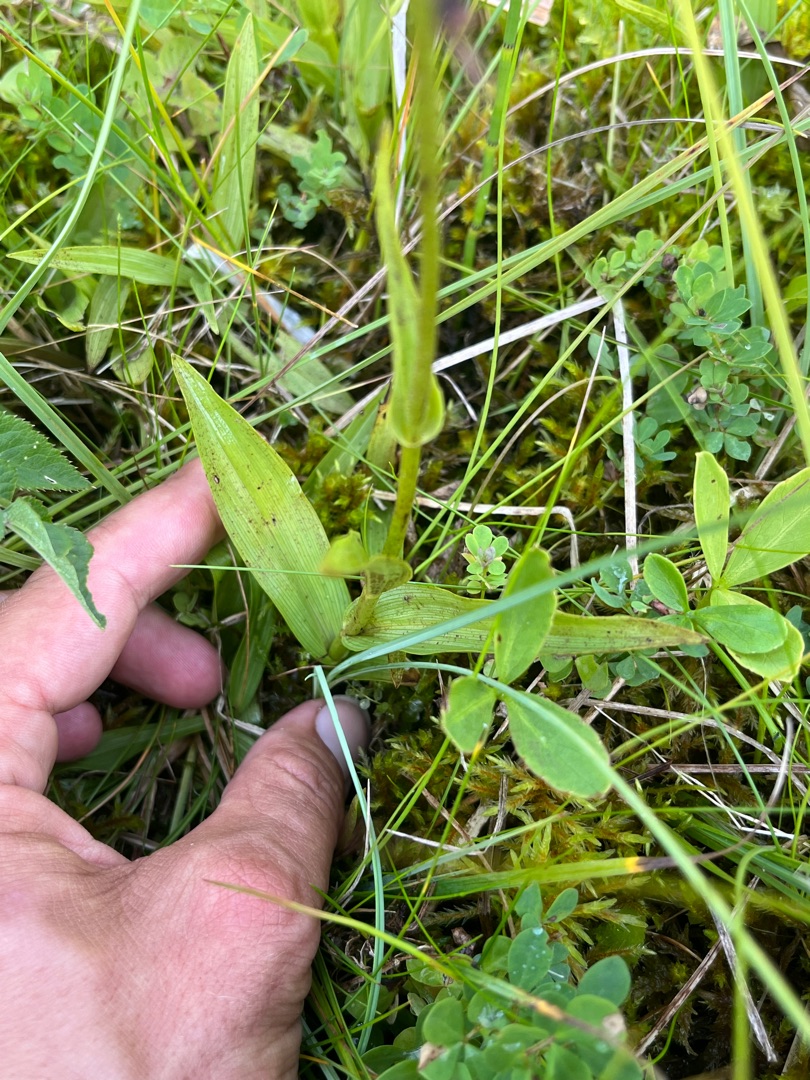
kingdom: Plantae
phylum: Tracheophyta
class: Liliopsida
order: Asparagales
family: Orchidaceae
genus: Epipactis
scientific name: Epipactis palustris
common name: Sump-hullæbe
